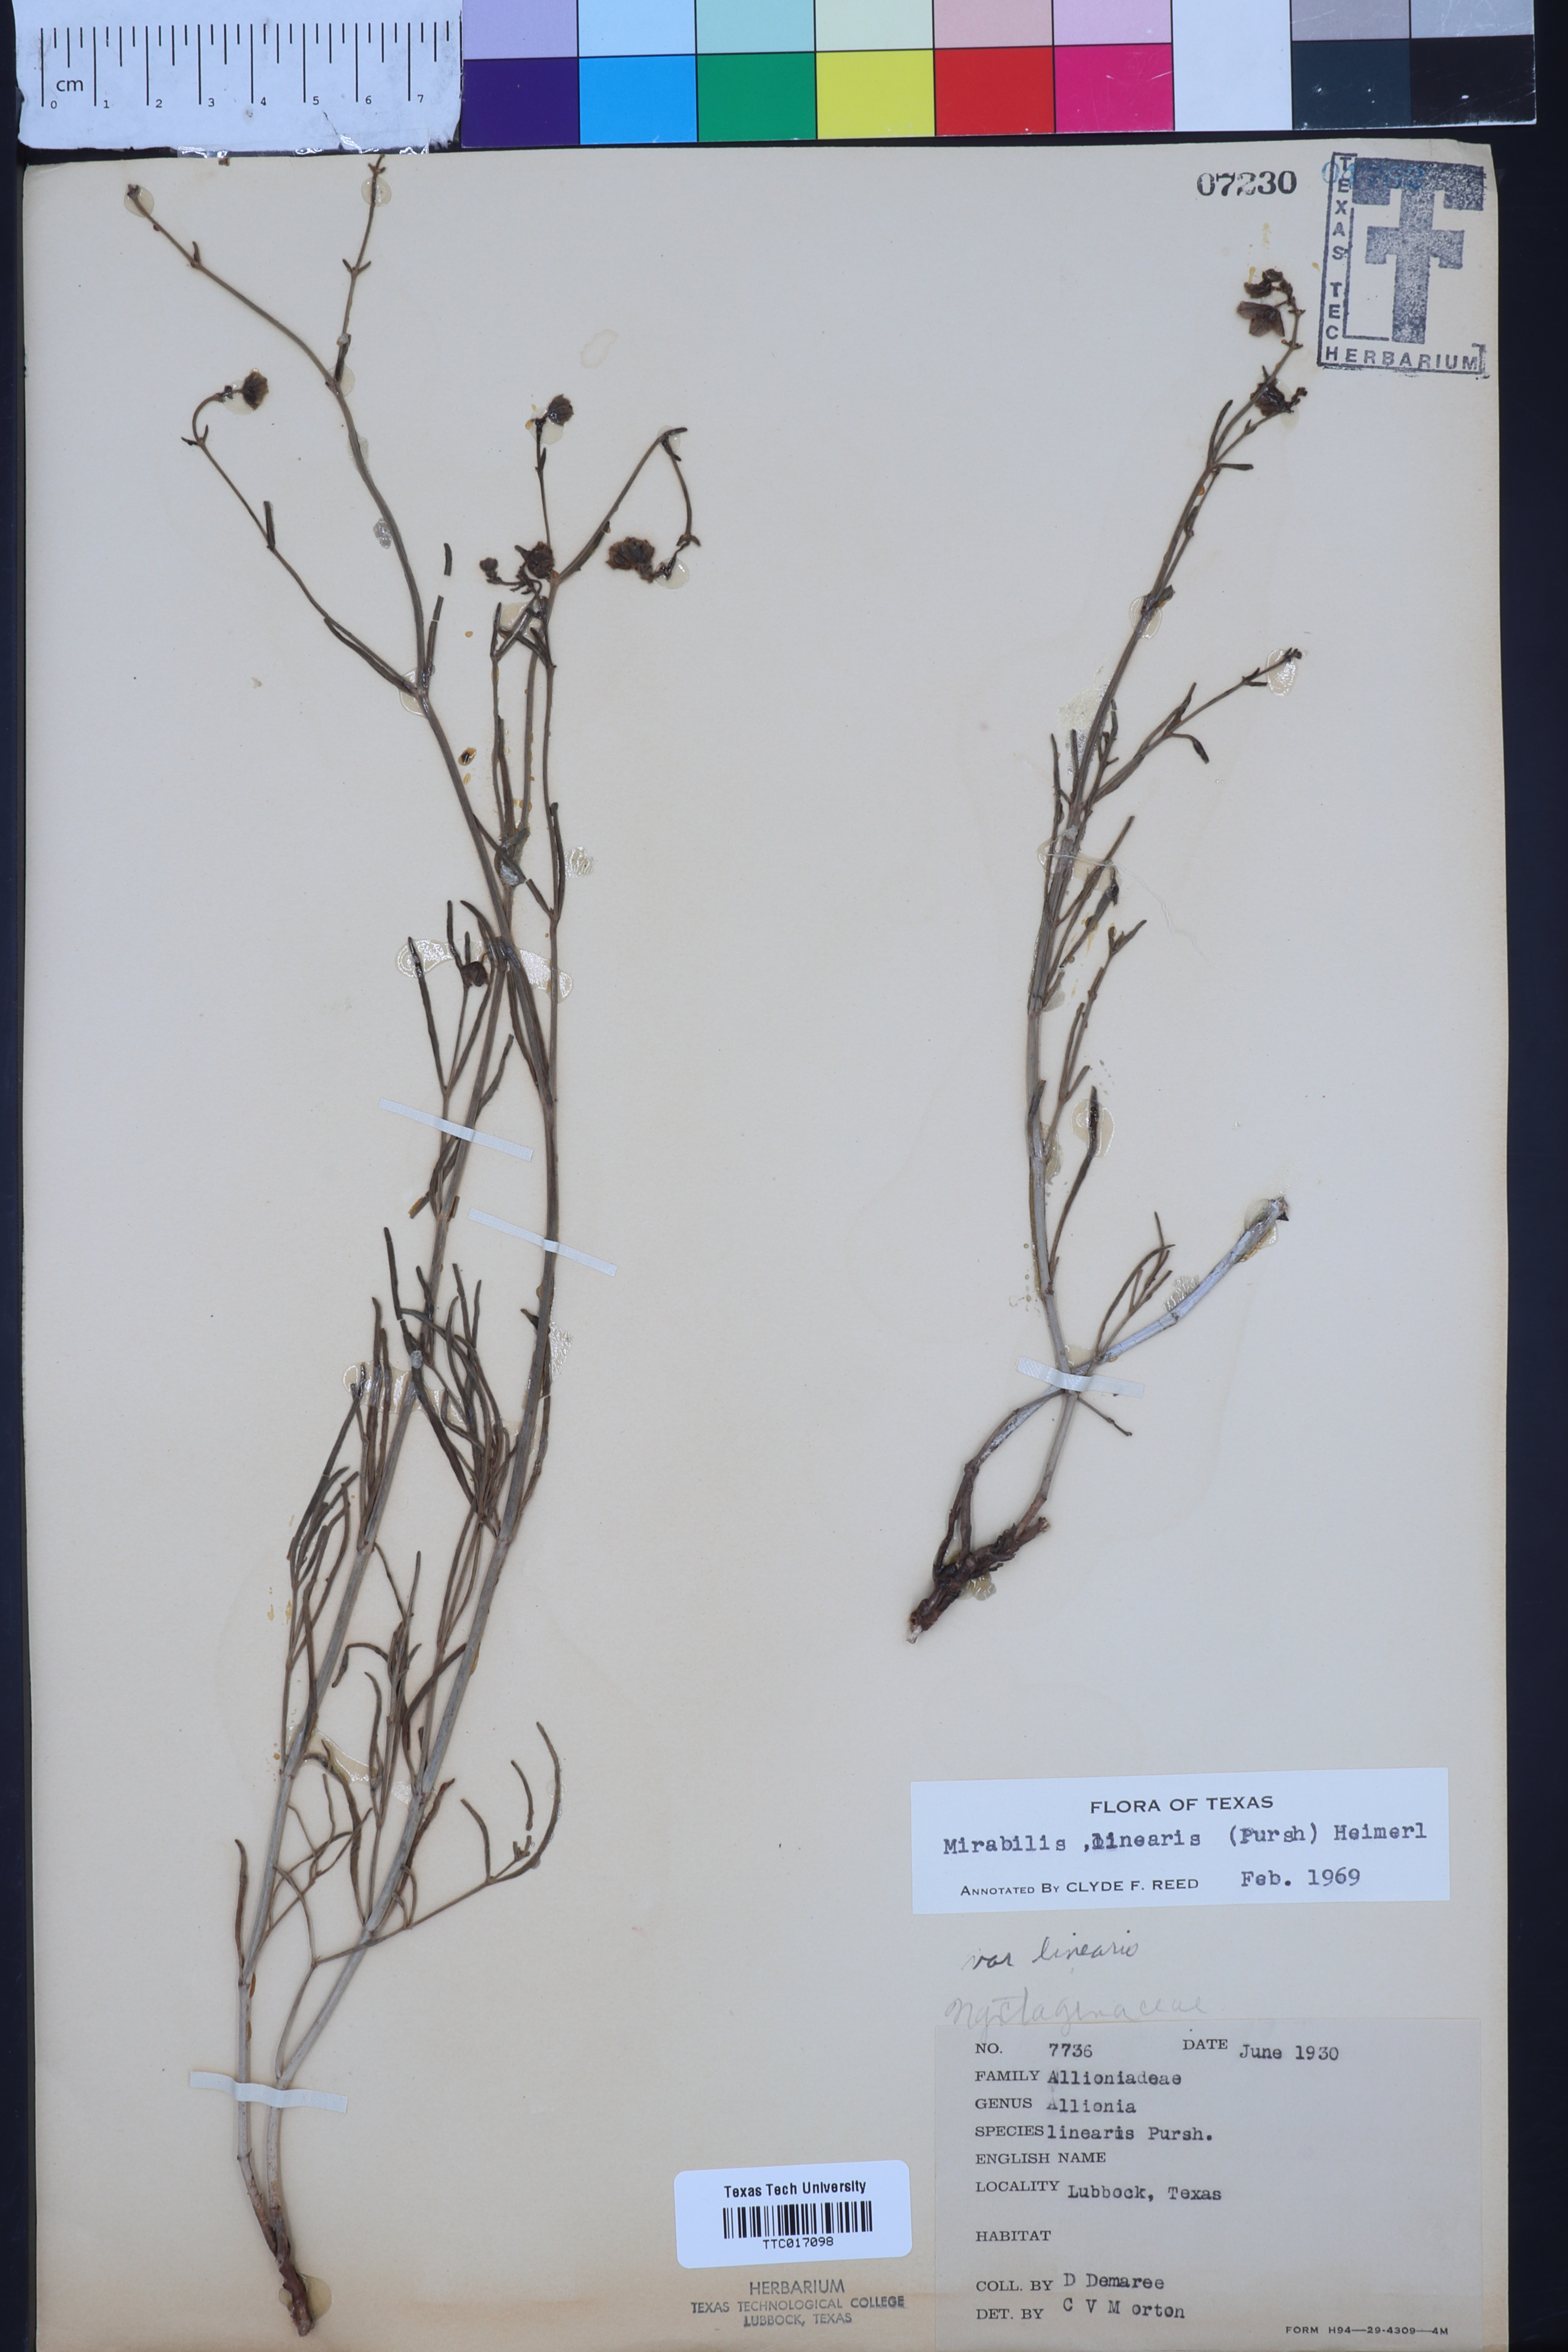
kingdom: Plantae
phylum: Tracheophyta
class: Magnoliopsida
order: Caryophyllales
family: Nyctaginaceae
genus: Mirabilis
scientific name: Mirabilis linearis
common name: Linear-leaved four-o'clock
